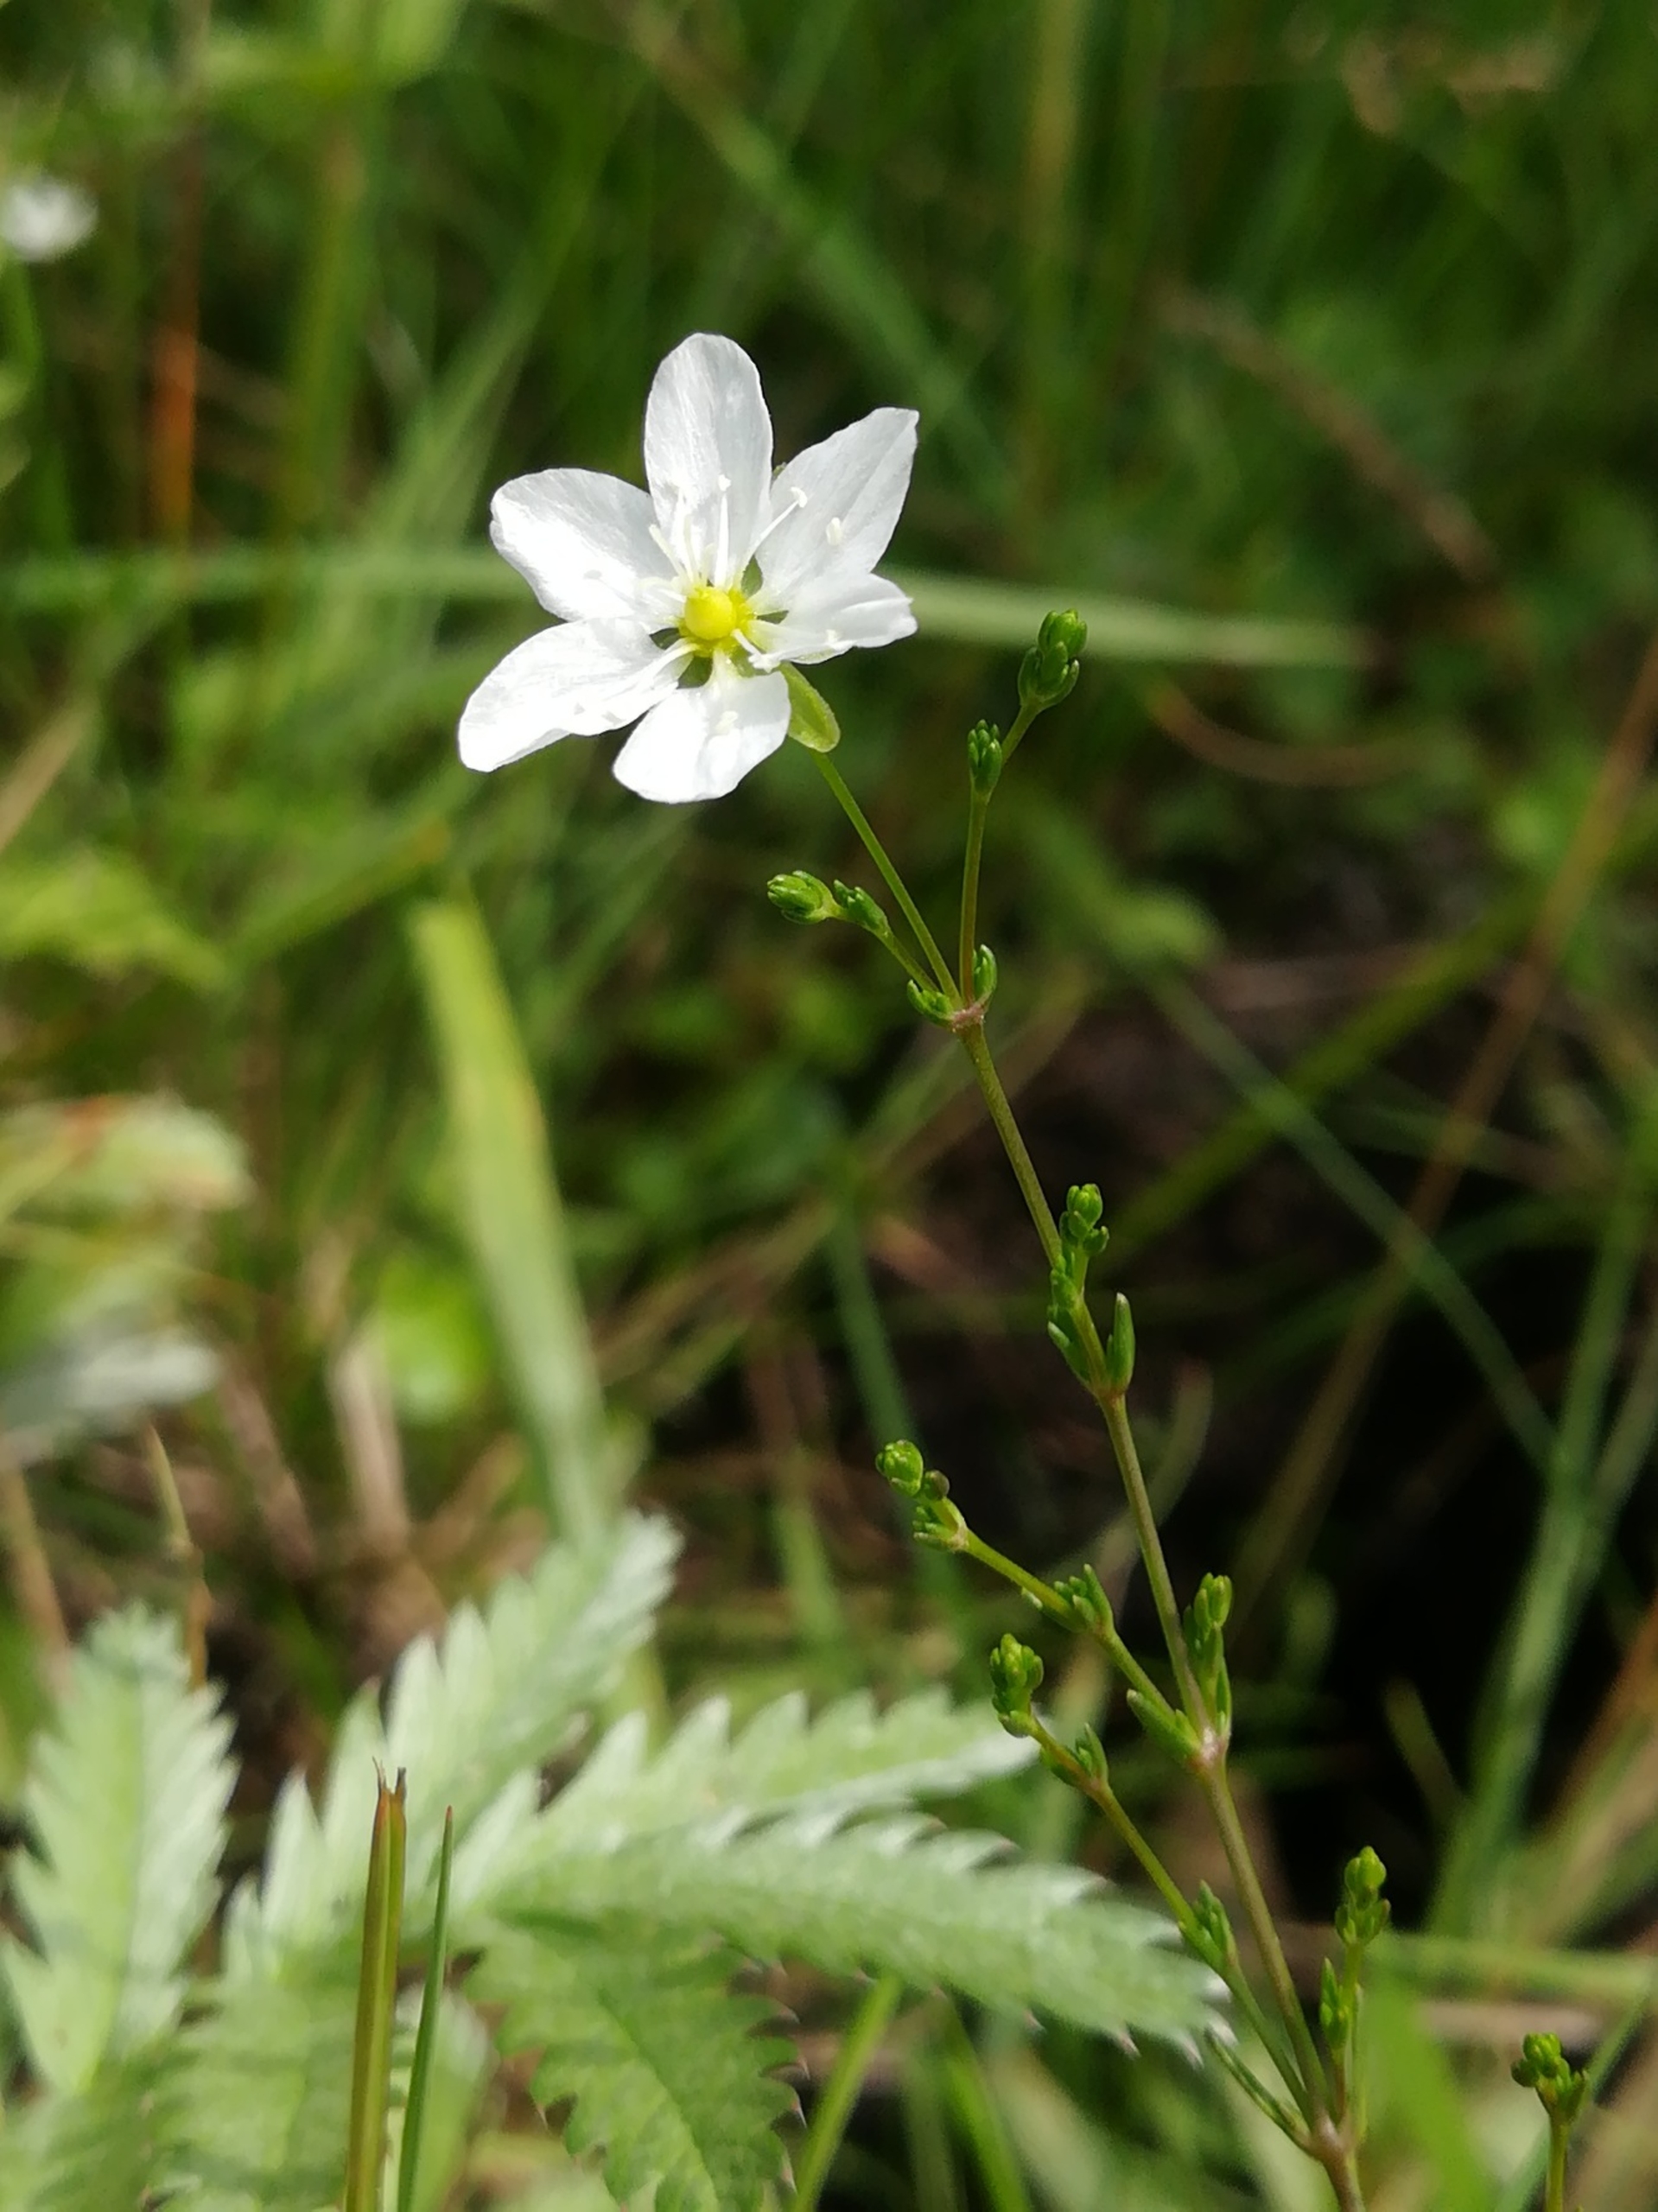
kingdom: Plantae
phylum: Tracheophyta
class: Magnoliopsida
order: Caryophyllales
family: Caryophyllaceae
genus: Sagina
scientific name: Sagina nodosa
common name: Knude-firling
